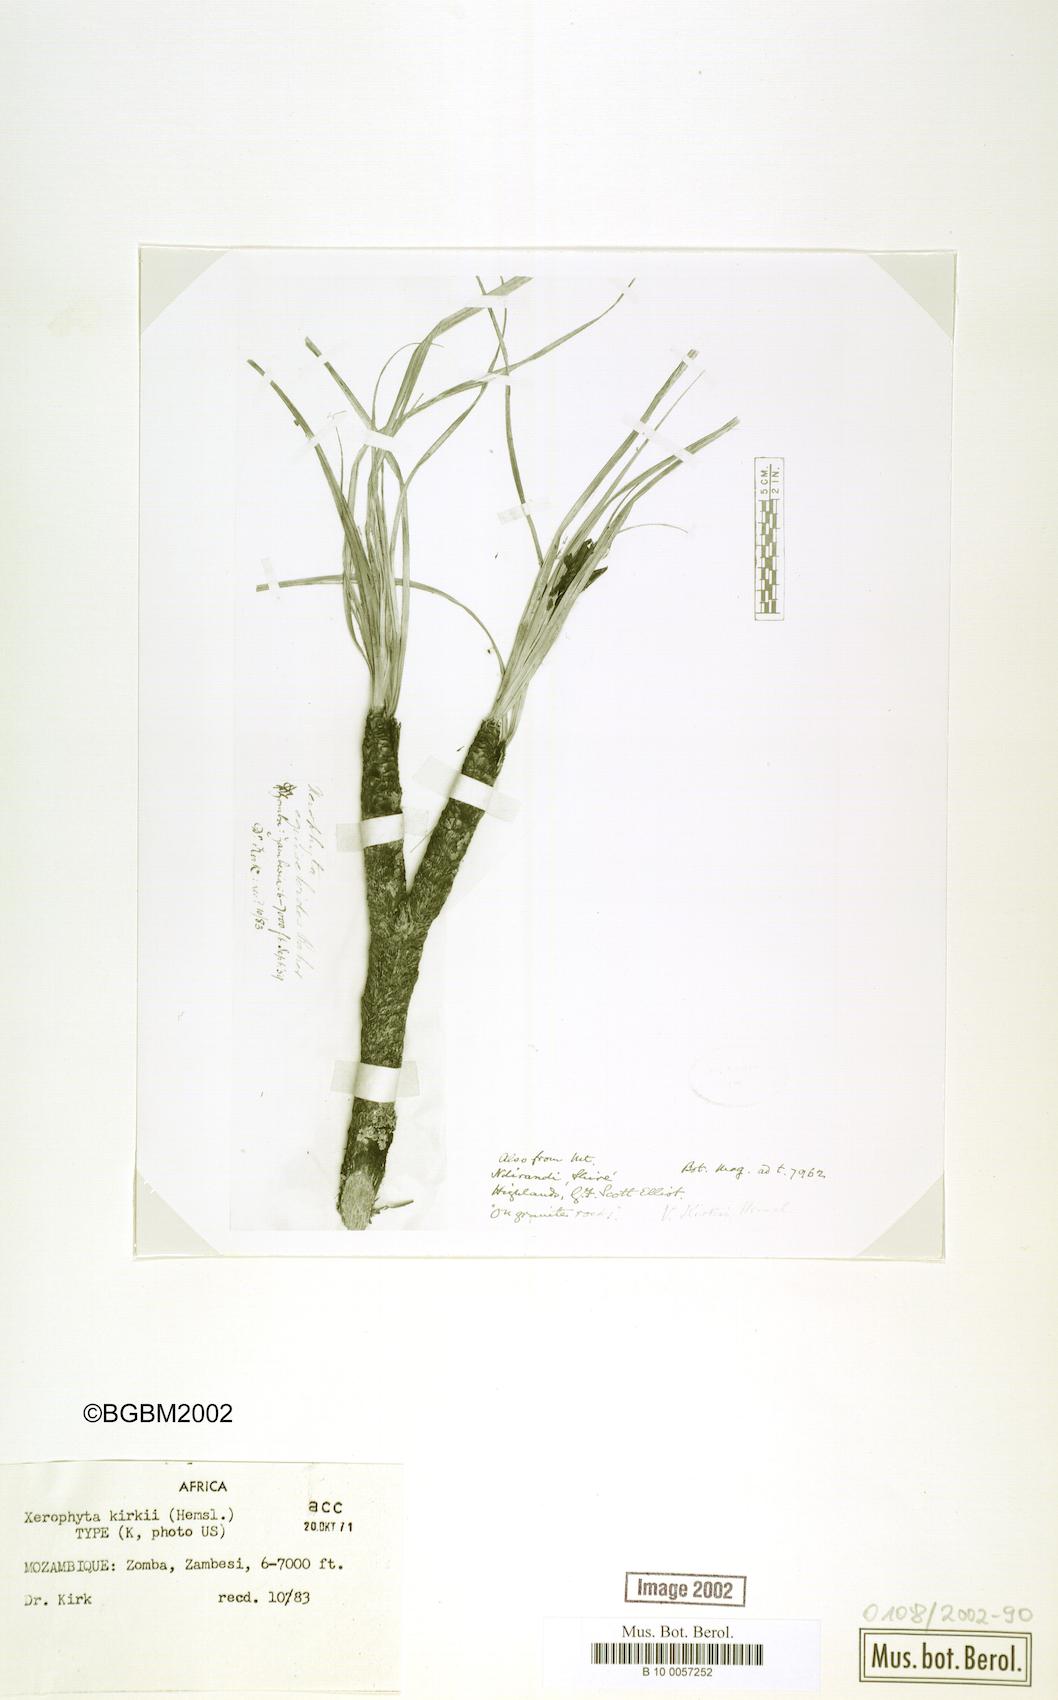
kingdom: Plantae
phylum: Tracheophyta
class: Liliopsida
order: Pandanales
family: Velloziaceae
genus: Xerophyta
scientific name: Xerophyta kirkii
